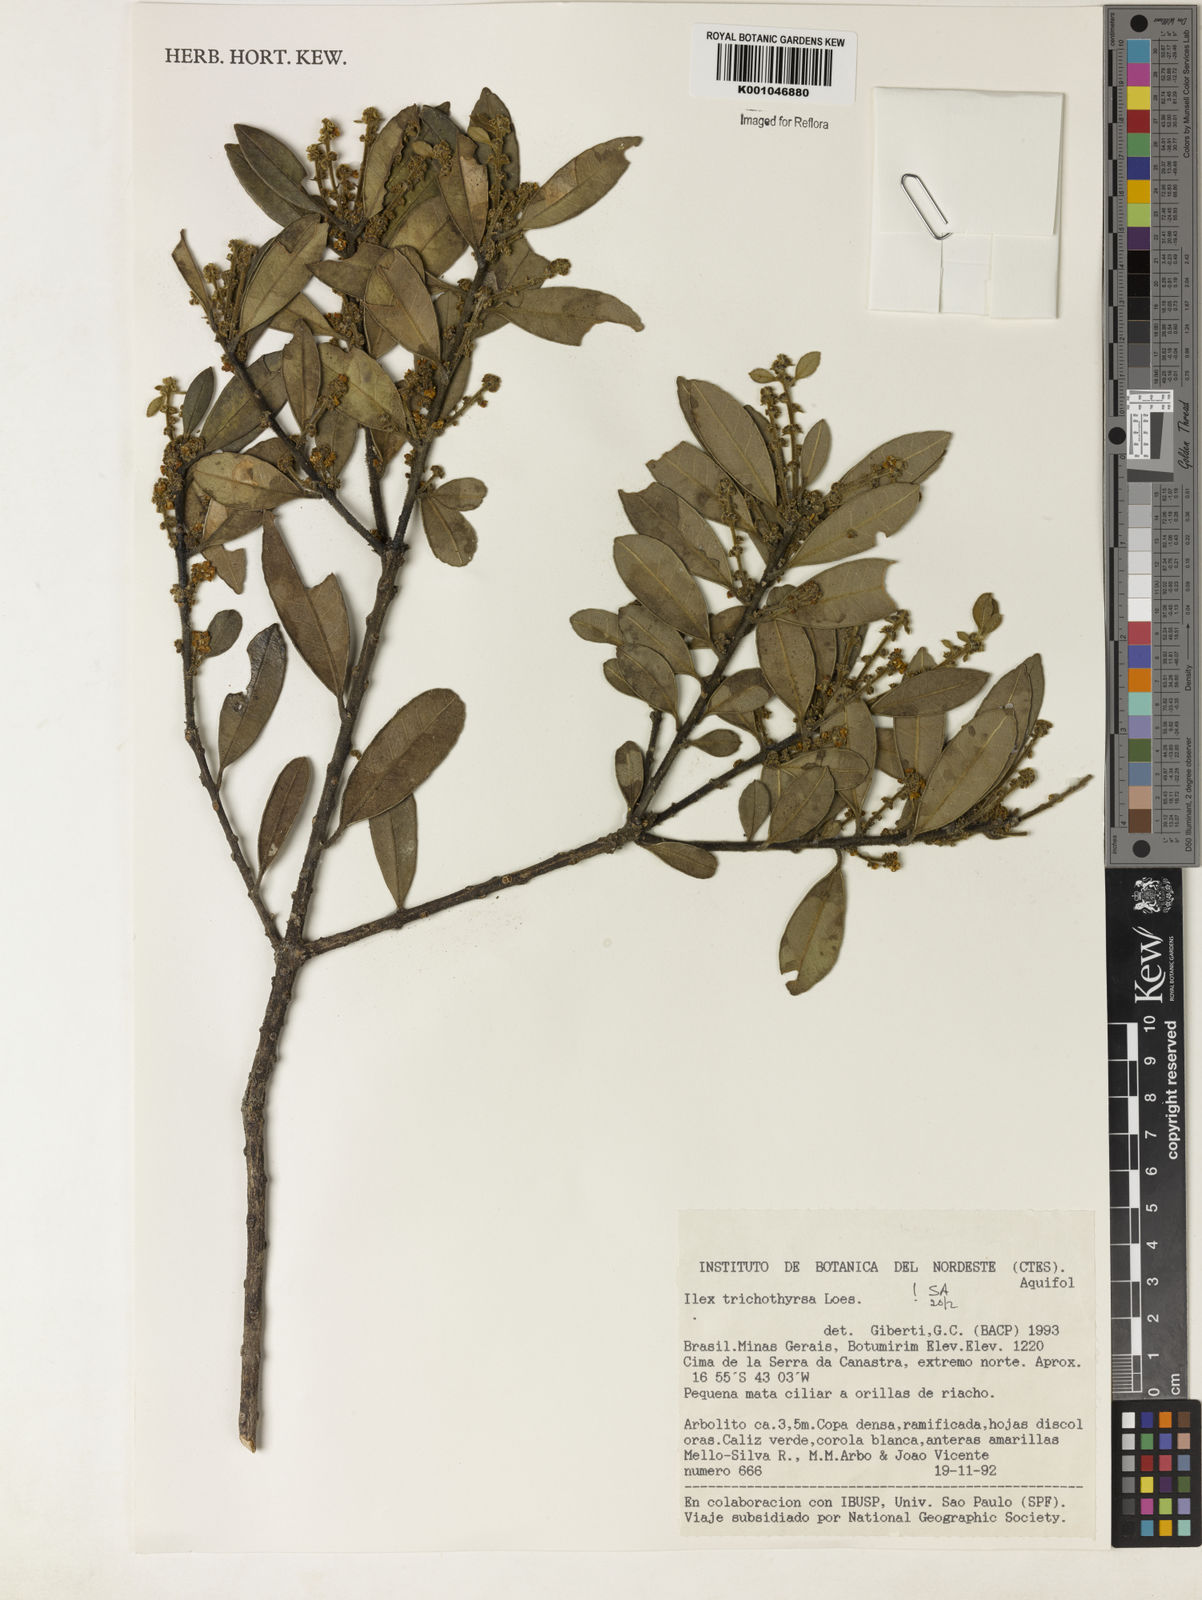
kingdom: Plantae
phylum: Tracheophyta
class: Magnoliopsida
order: Aquifoliales
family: Aquifoliaceae
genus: Ilex
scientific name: Ilex trichothyrsa
